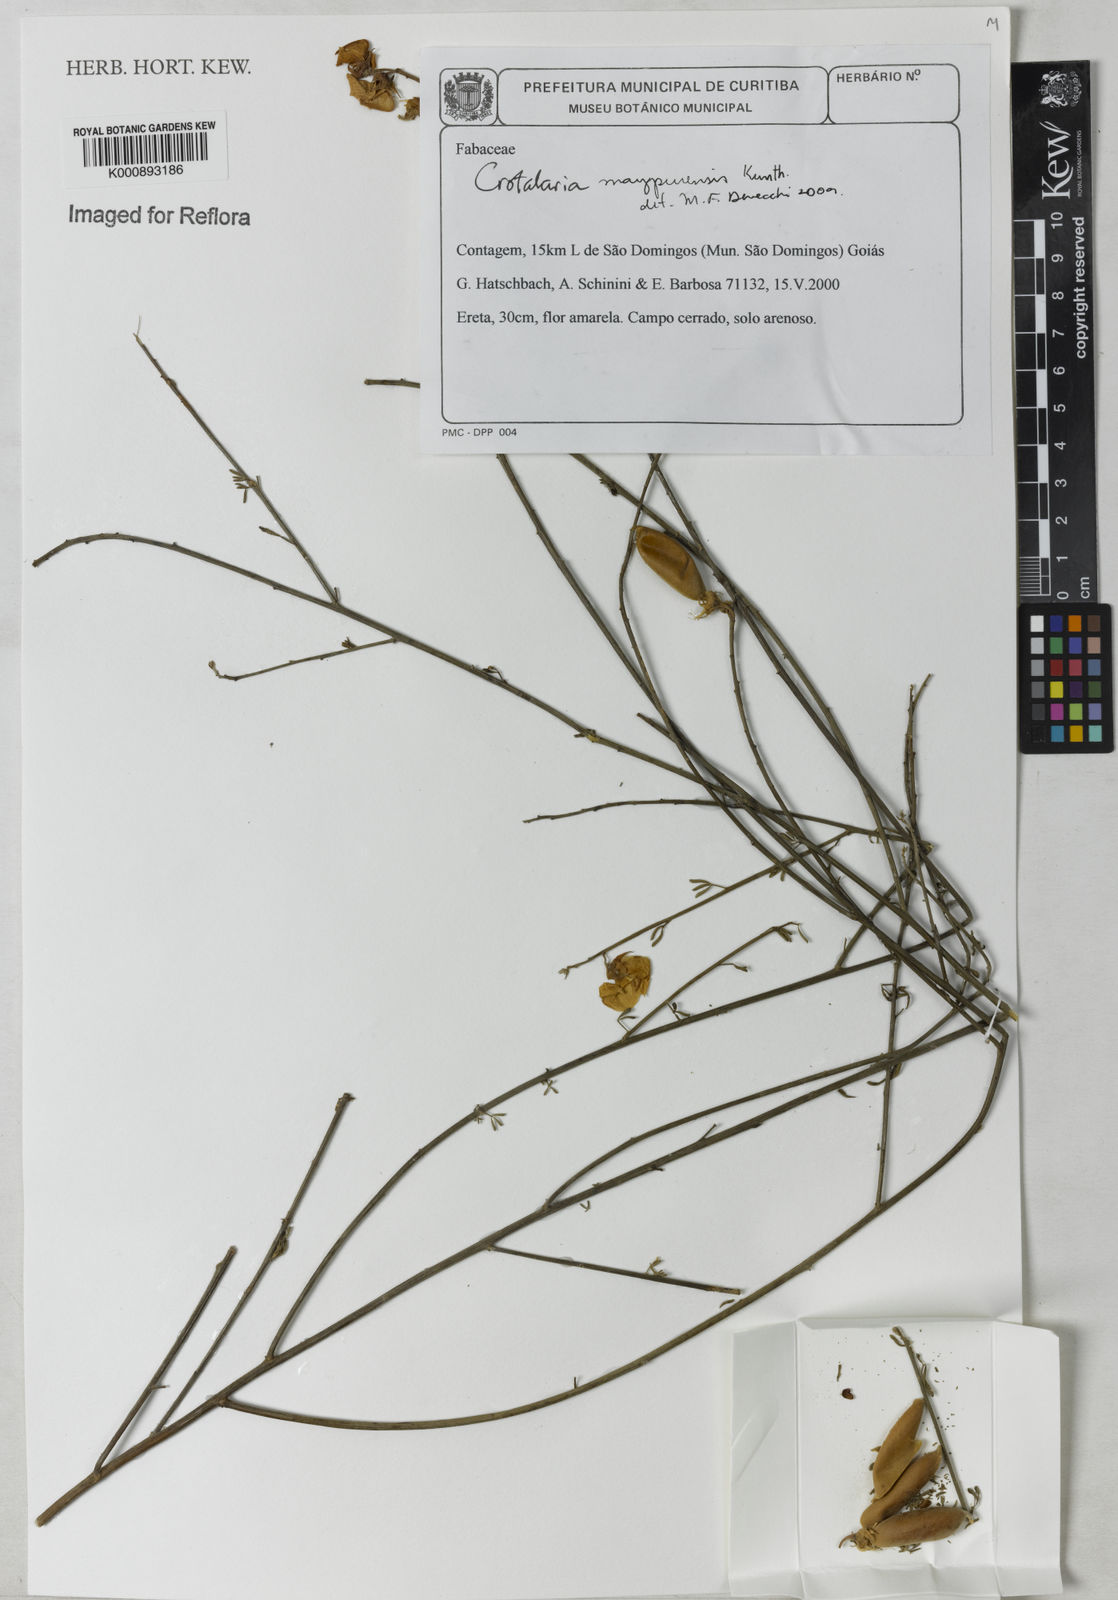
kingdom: Plantae
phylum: Tracheophyta
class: Magnoliopsida
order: Fabales
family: Fabaceae
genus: Crotalaria
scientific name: Crotalaria maypurensis
